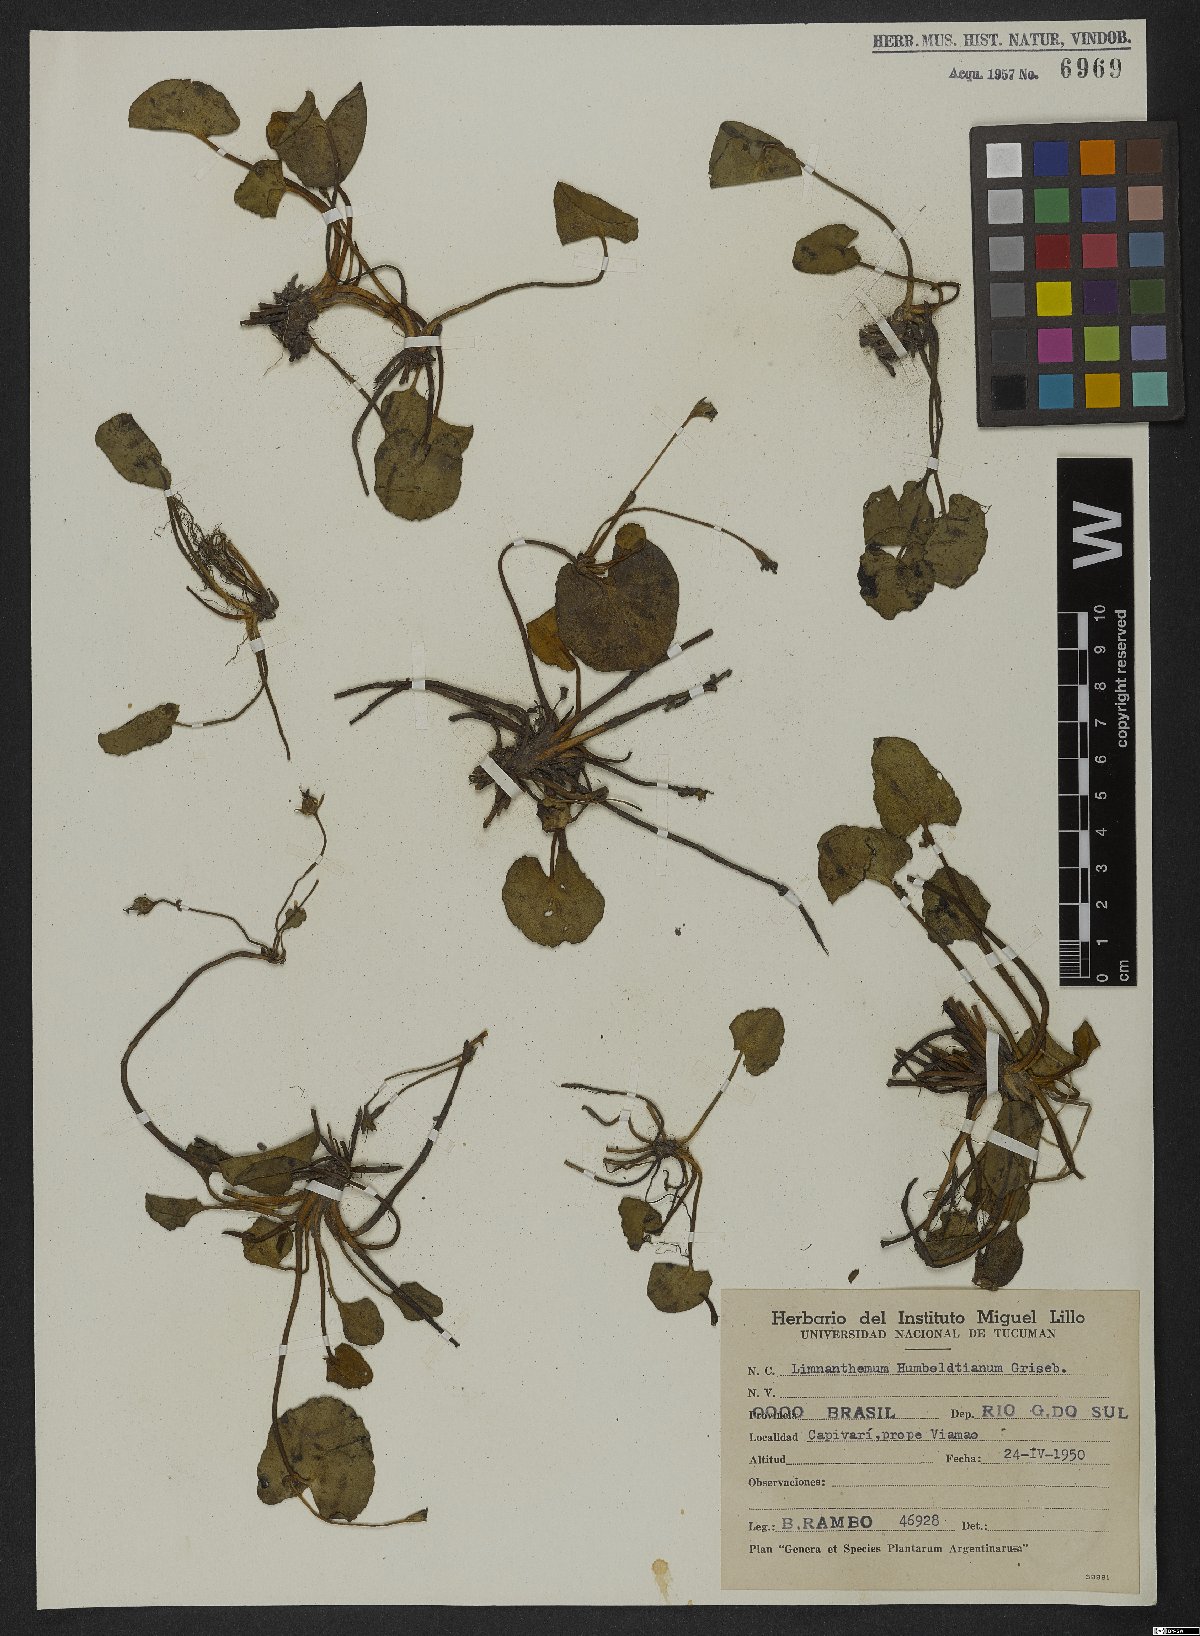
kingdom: Plantae
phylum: Tracheophyta
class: Magnoliopsida
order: Asterales
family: Menyanthaceae
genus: Nymphoides
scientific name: Nymphoides humboldtiana
